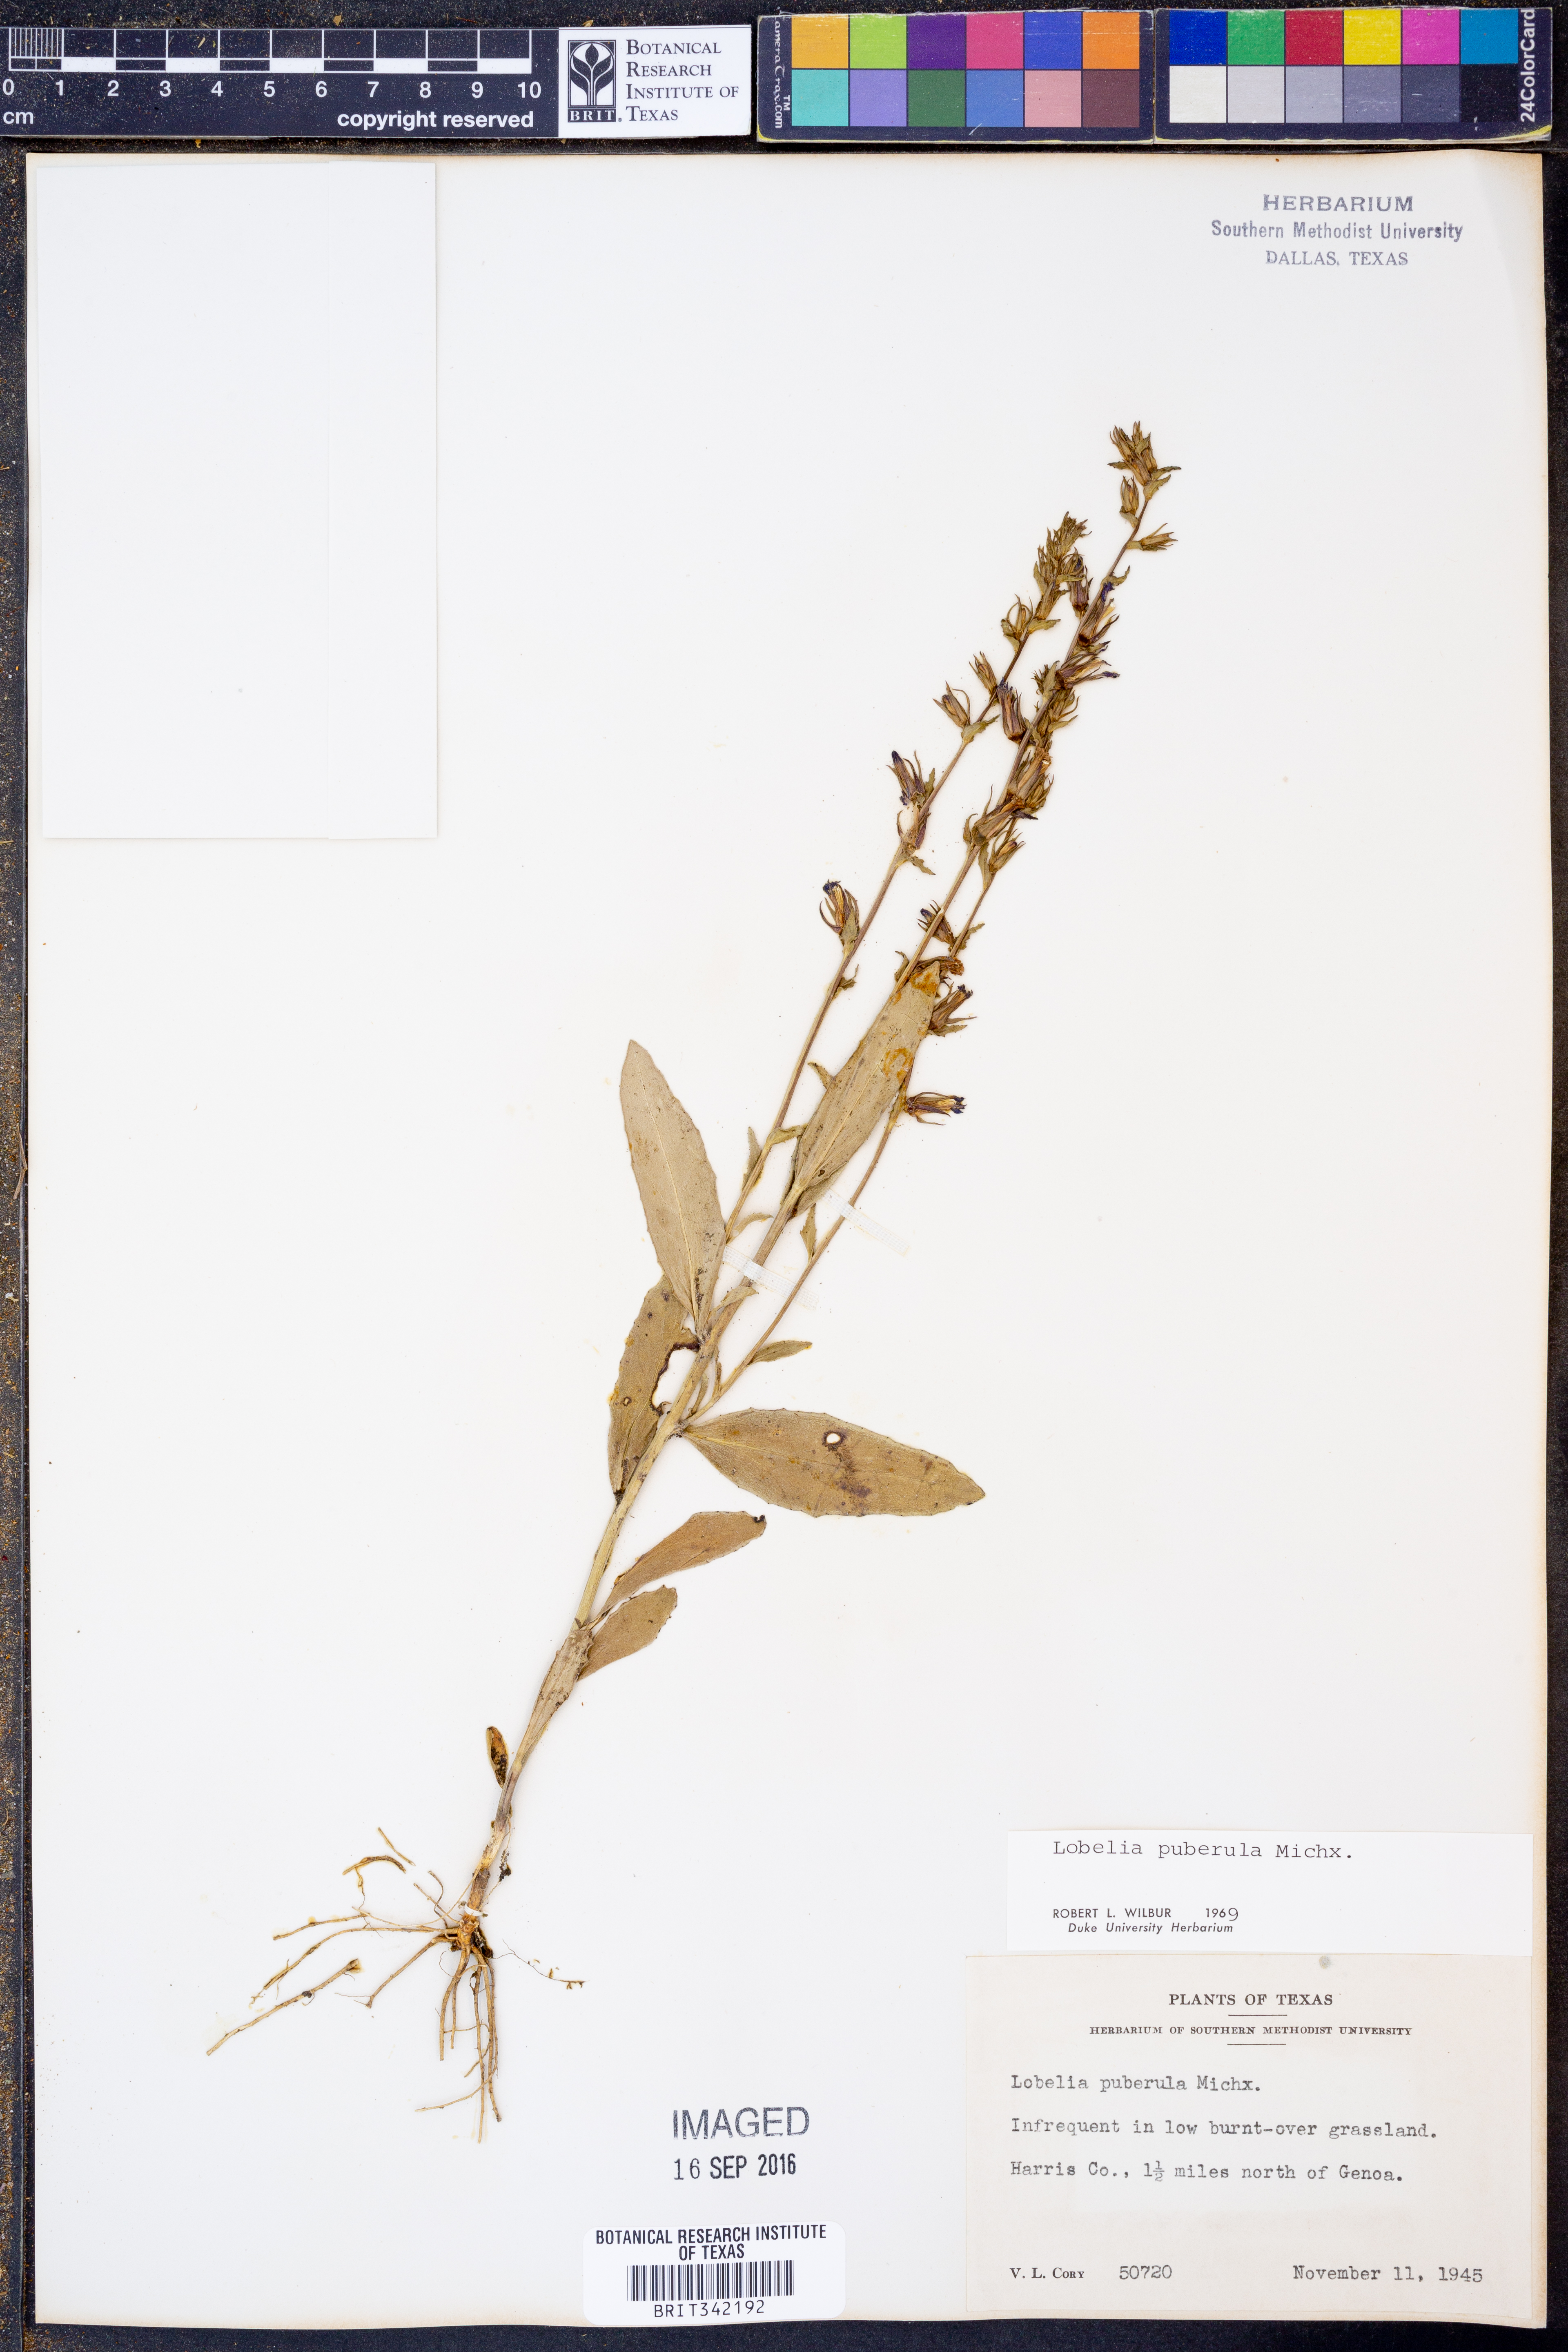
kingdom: Plantae
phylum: Tracheophyta
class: Magnoliopsida
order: Asterales
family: Campanulaceae
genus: Lobelia
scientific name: Lobelia puberula
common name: Purple dewdrop
